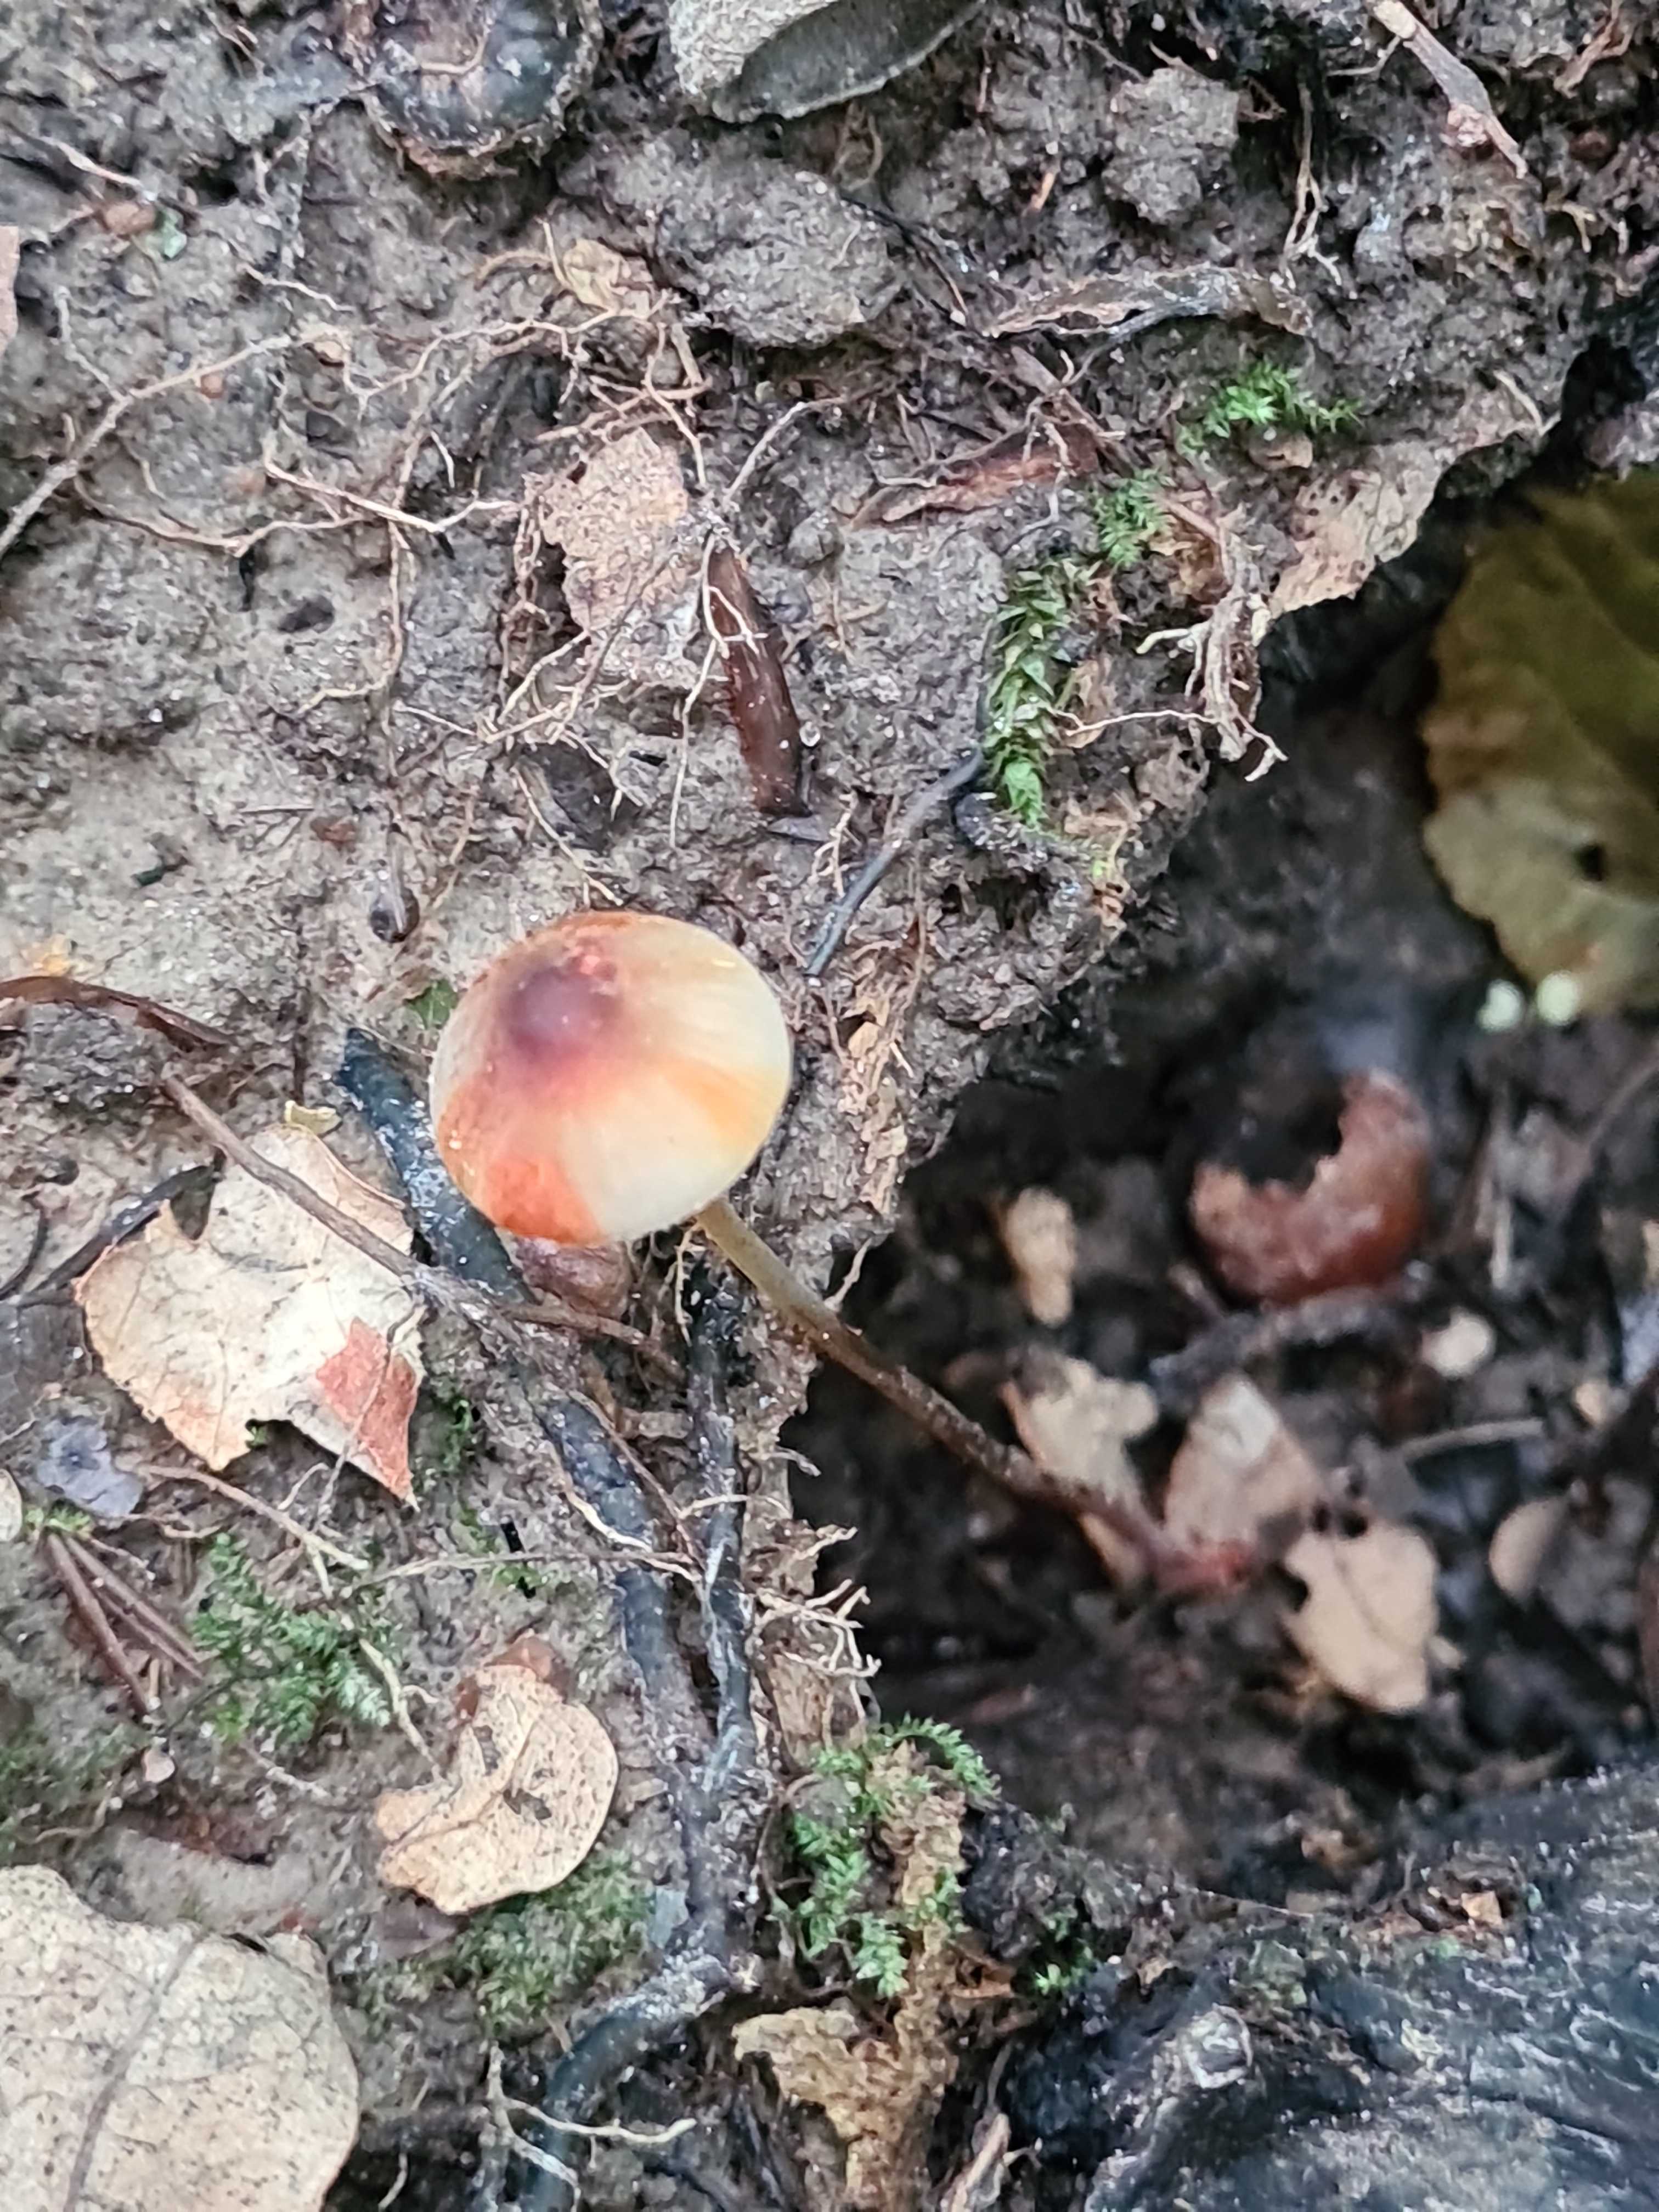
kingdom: Fungi
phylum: Basidiomycota
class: Agaricomycetes
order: Agaricales
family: Mycenaceae
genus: Mycena
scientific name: Mycena crocata
